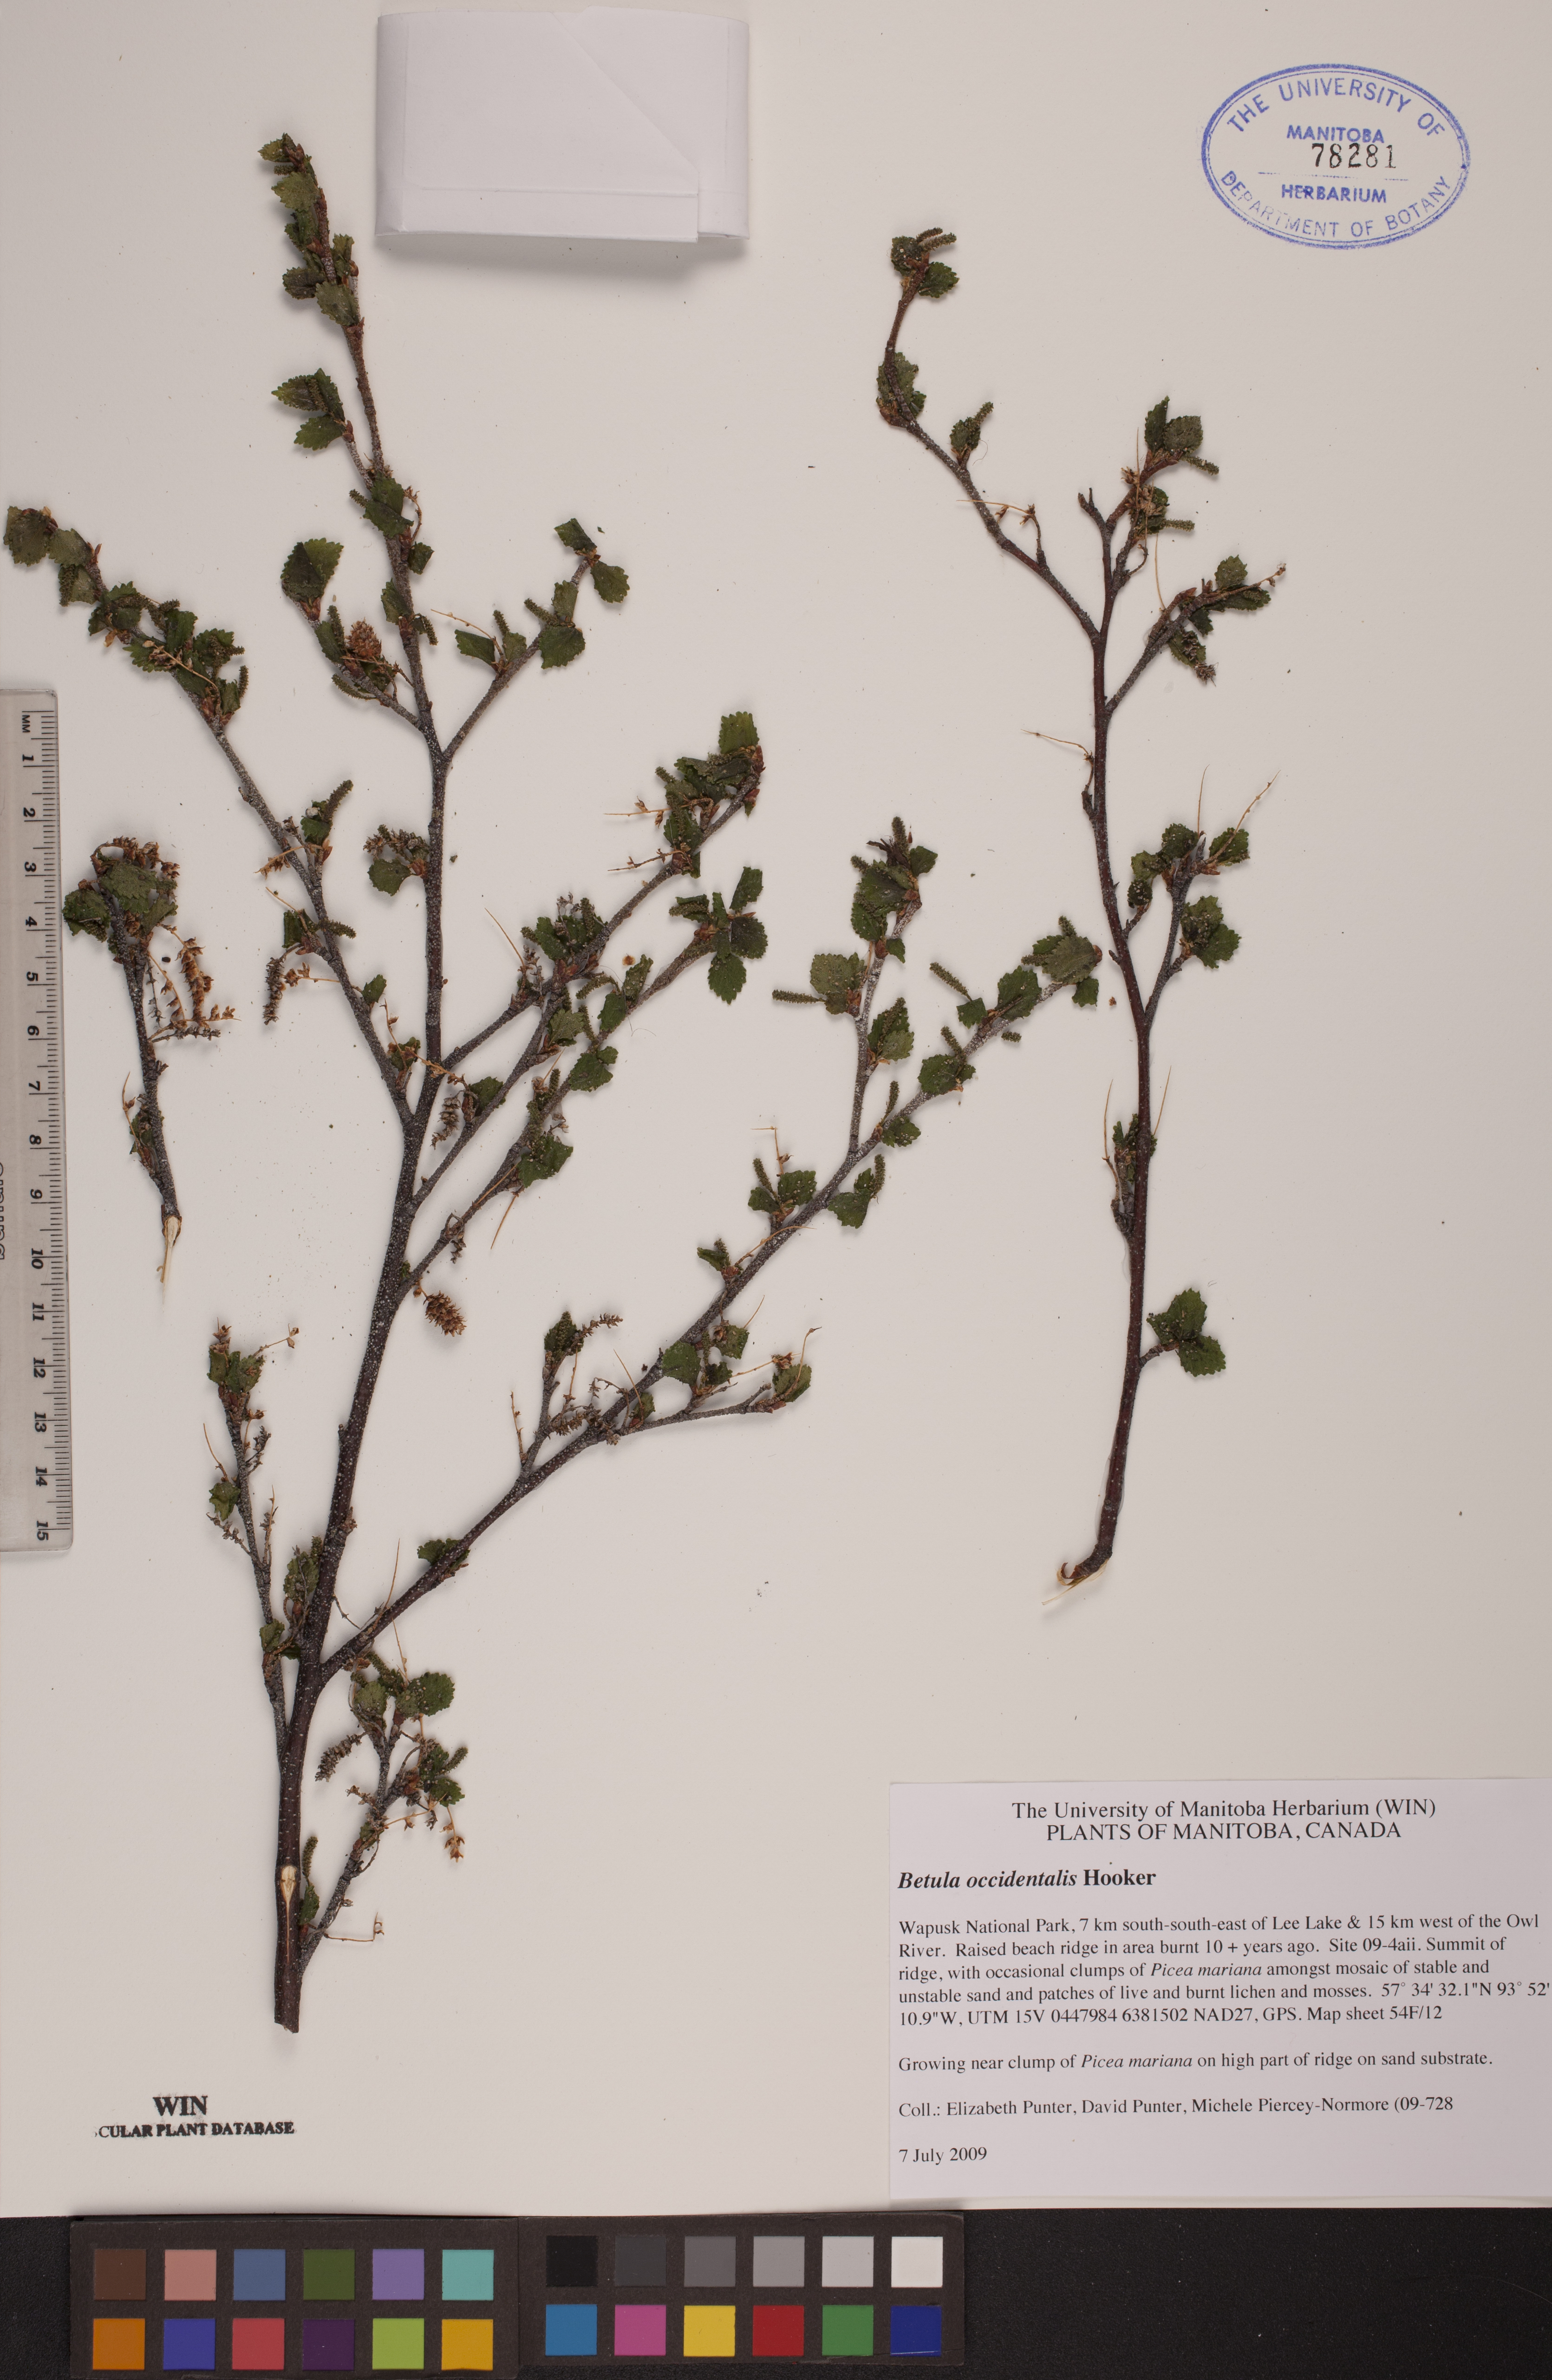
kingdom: Plantae
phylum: Tracheophyta
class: Magnoliopsida
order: Fagales
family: Betulaceae
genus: Betula
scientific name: Betula occidentalis
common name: River birch
